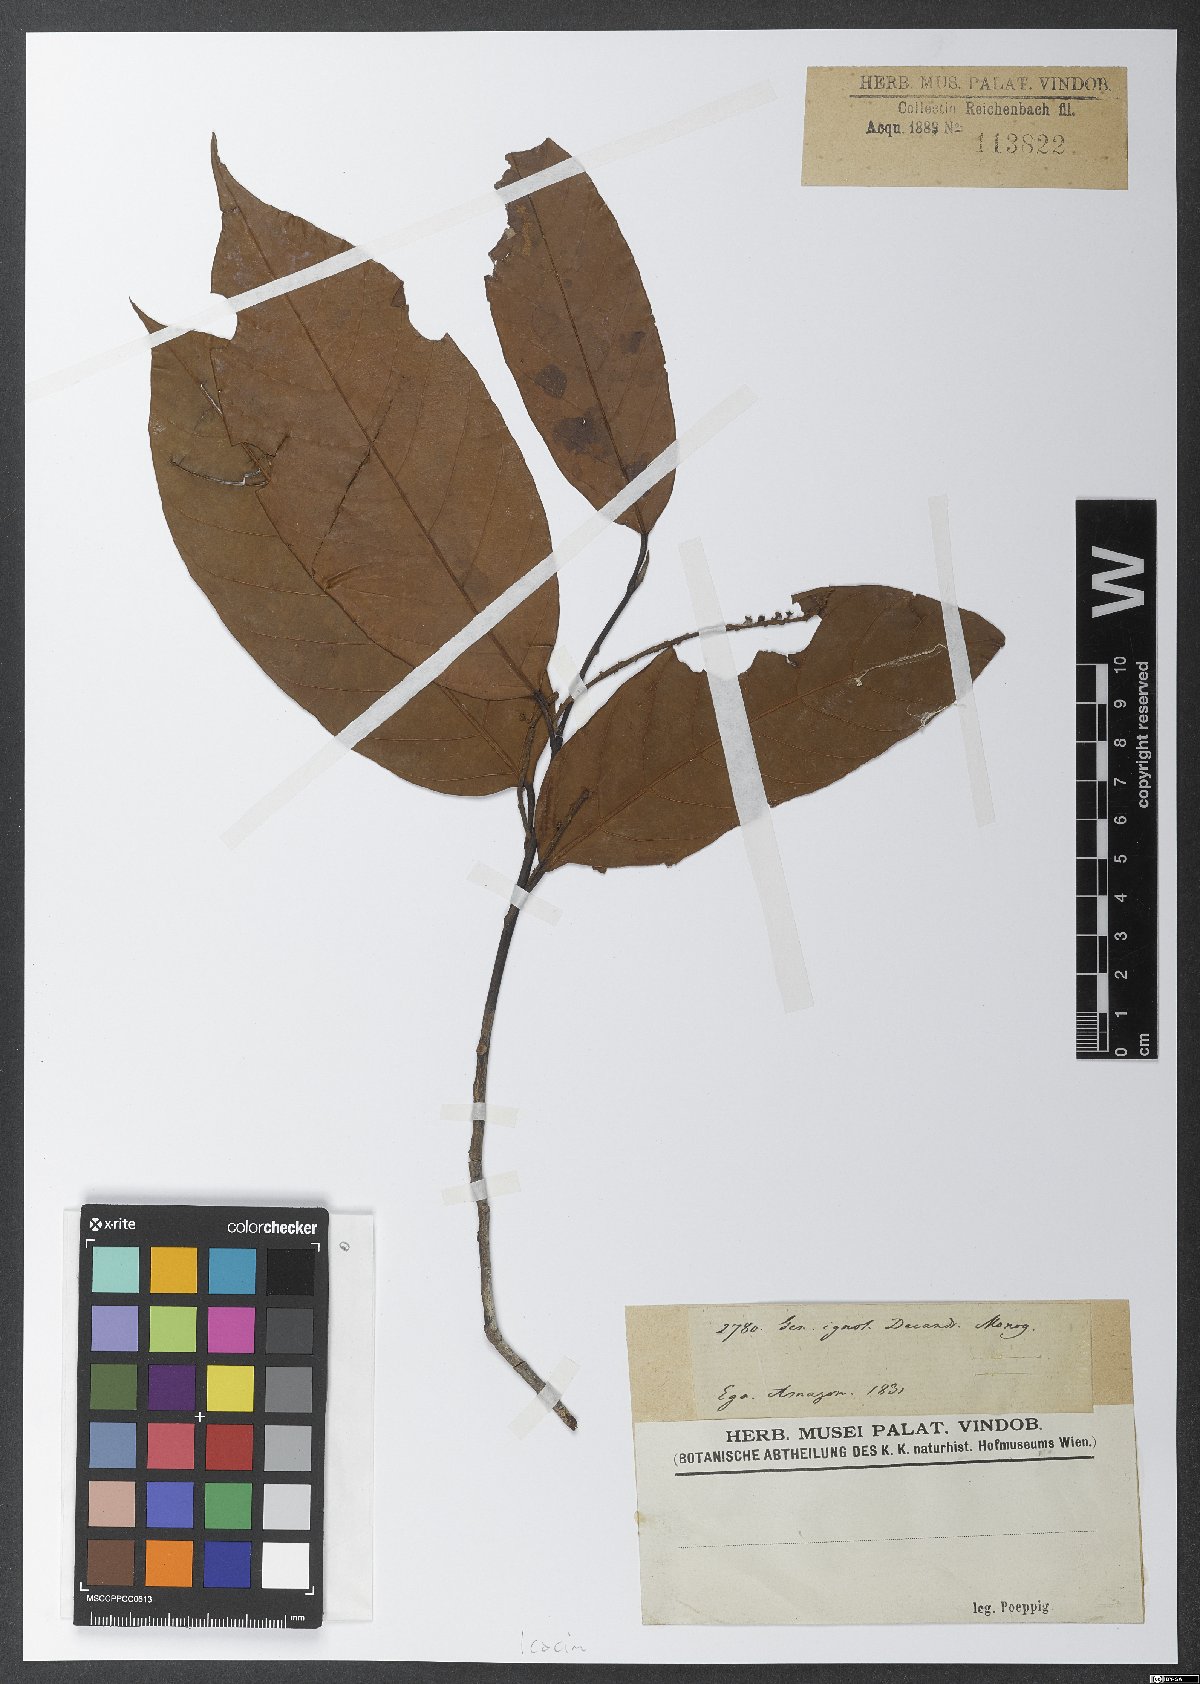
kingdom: Plantae
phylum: Tracheophyta
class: Magnoliopsida
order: Icacinales
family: Icacinaceae
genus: Poraqueiba
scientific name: Poraqueiba
